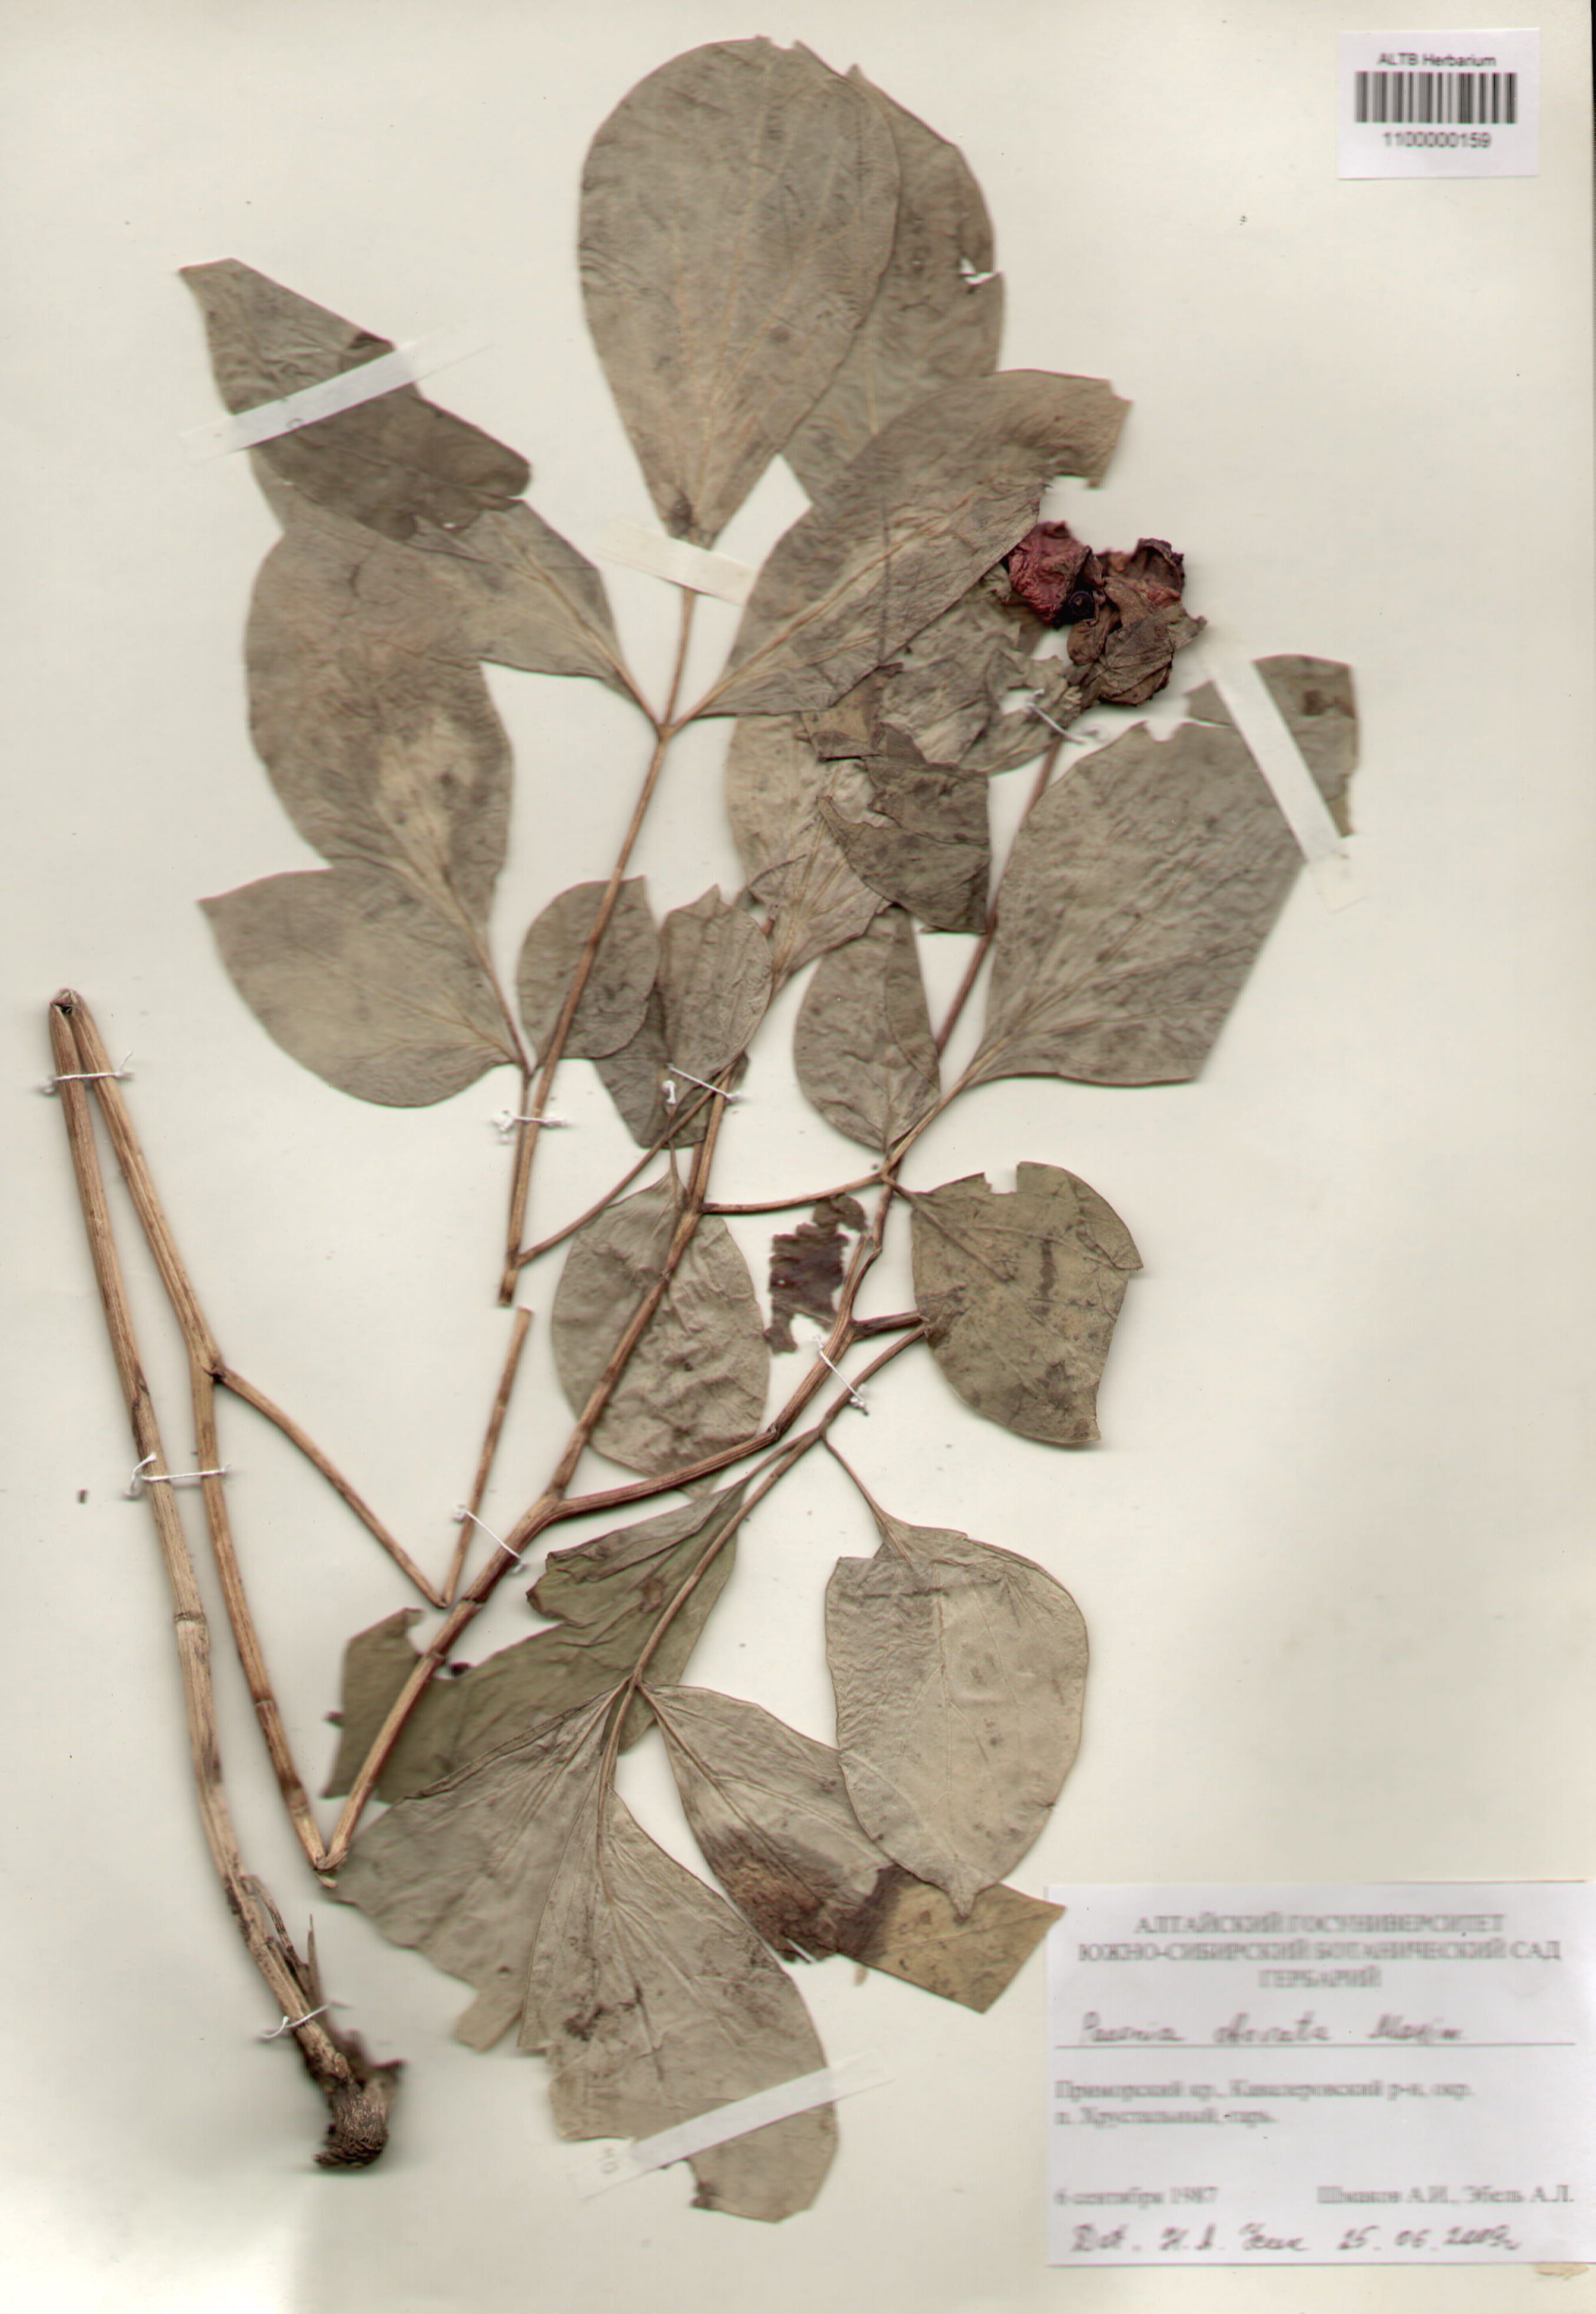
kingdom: Plantae
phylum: Tracheophyta
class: Magnoliopsida
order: Saxifragales
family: Paeoniaceae
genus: Paeonia
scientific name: Paeonia obovata
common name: Chinese peony
